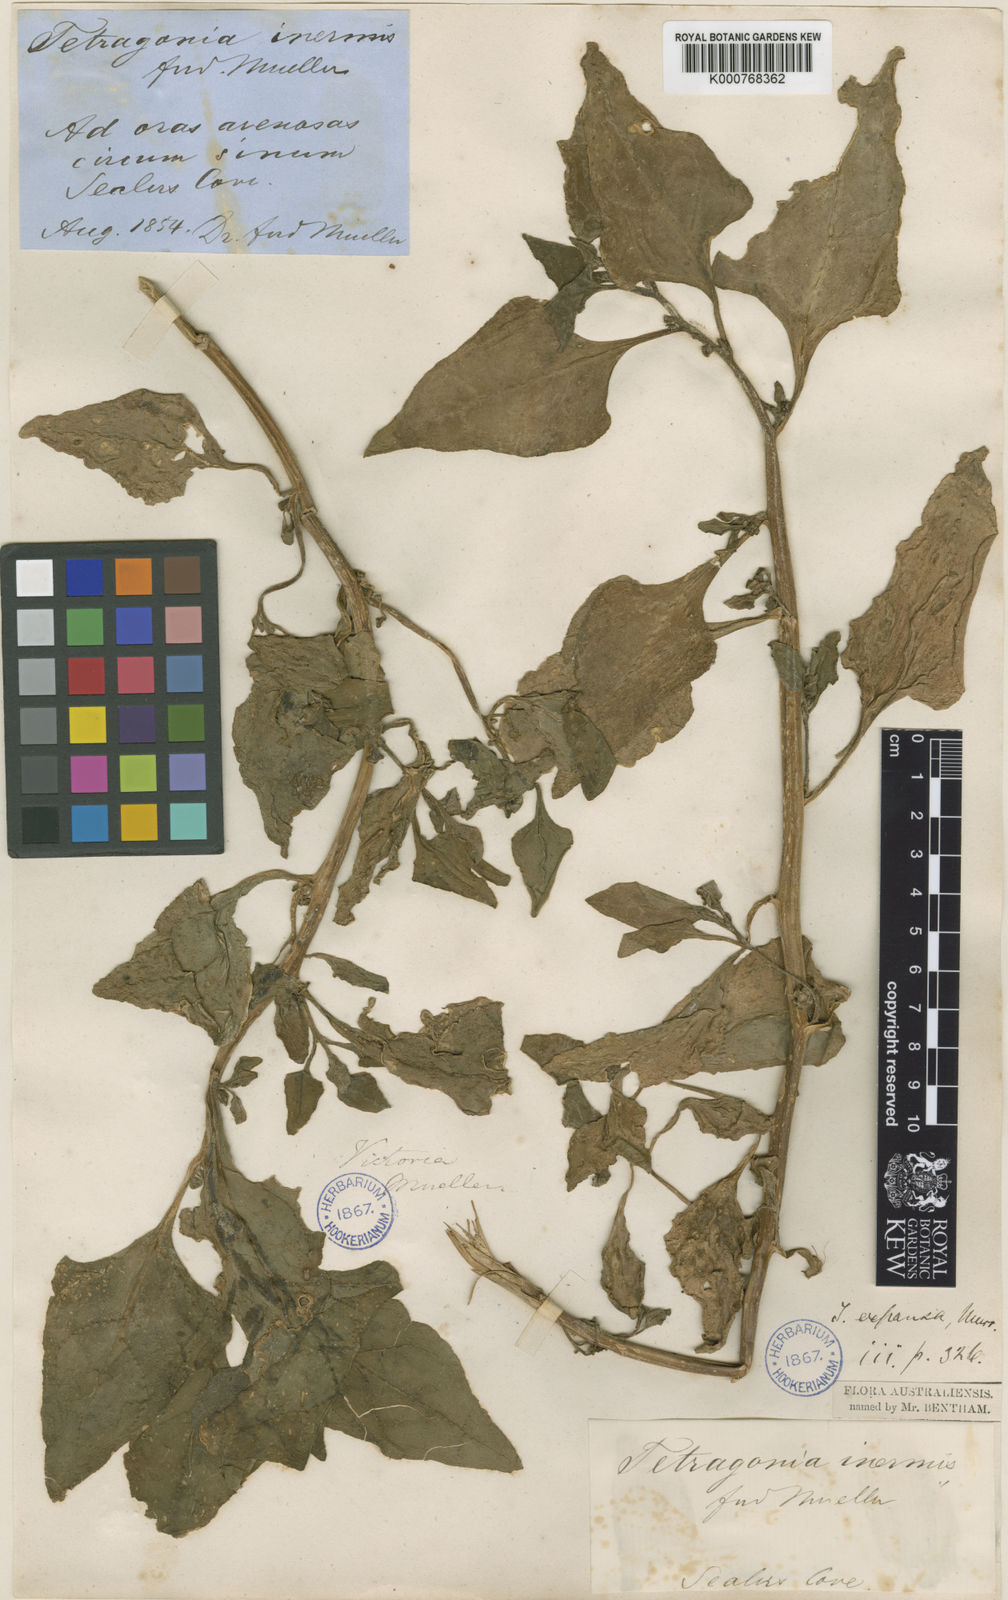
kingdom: Plantae
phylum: Tracheophyta
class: Magnoliopsida
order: Caryophyllales
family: Aizoaceae
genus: Tetragonia
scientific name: Tetragonia tetragonoides
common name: New zealand-spinach
